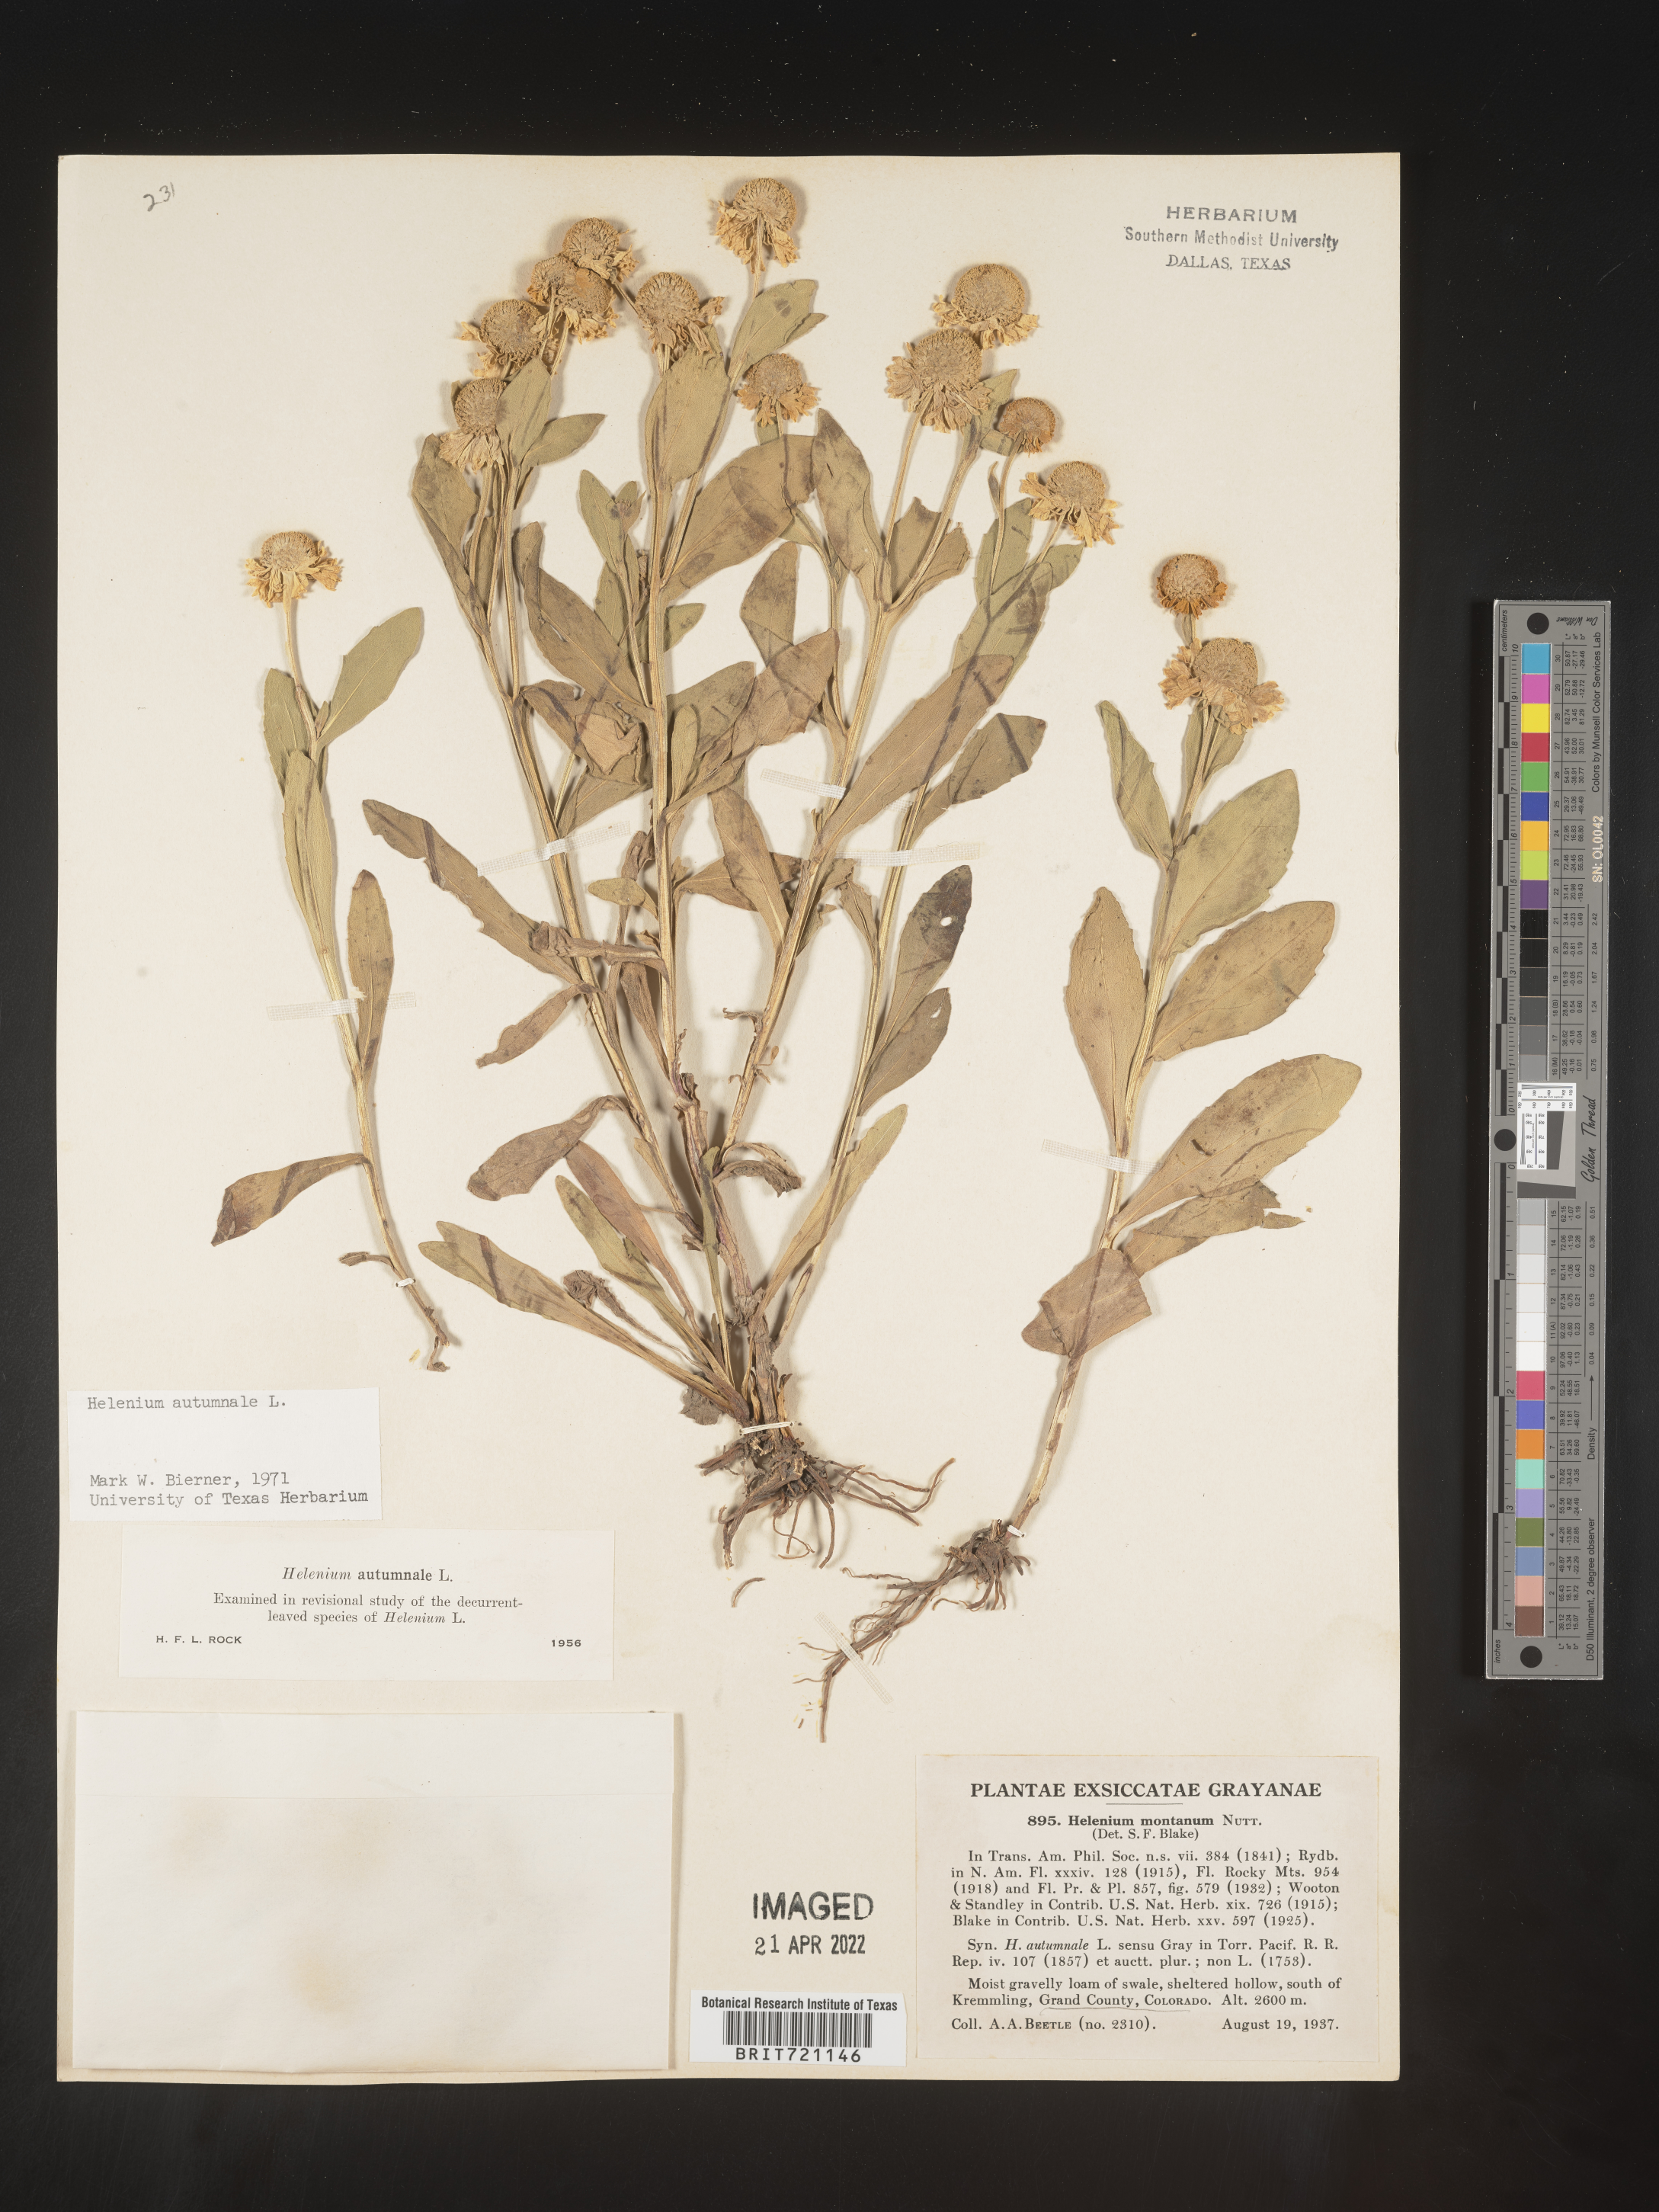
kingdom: Plantae
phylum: Tracheophyta
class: Magnoliopsida
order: Asterales
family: Asteraceae
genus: Helenium
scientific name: Helenium autumnale
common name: Sneezeweed
